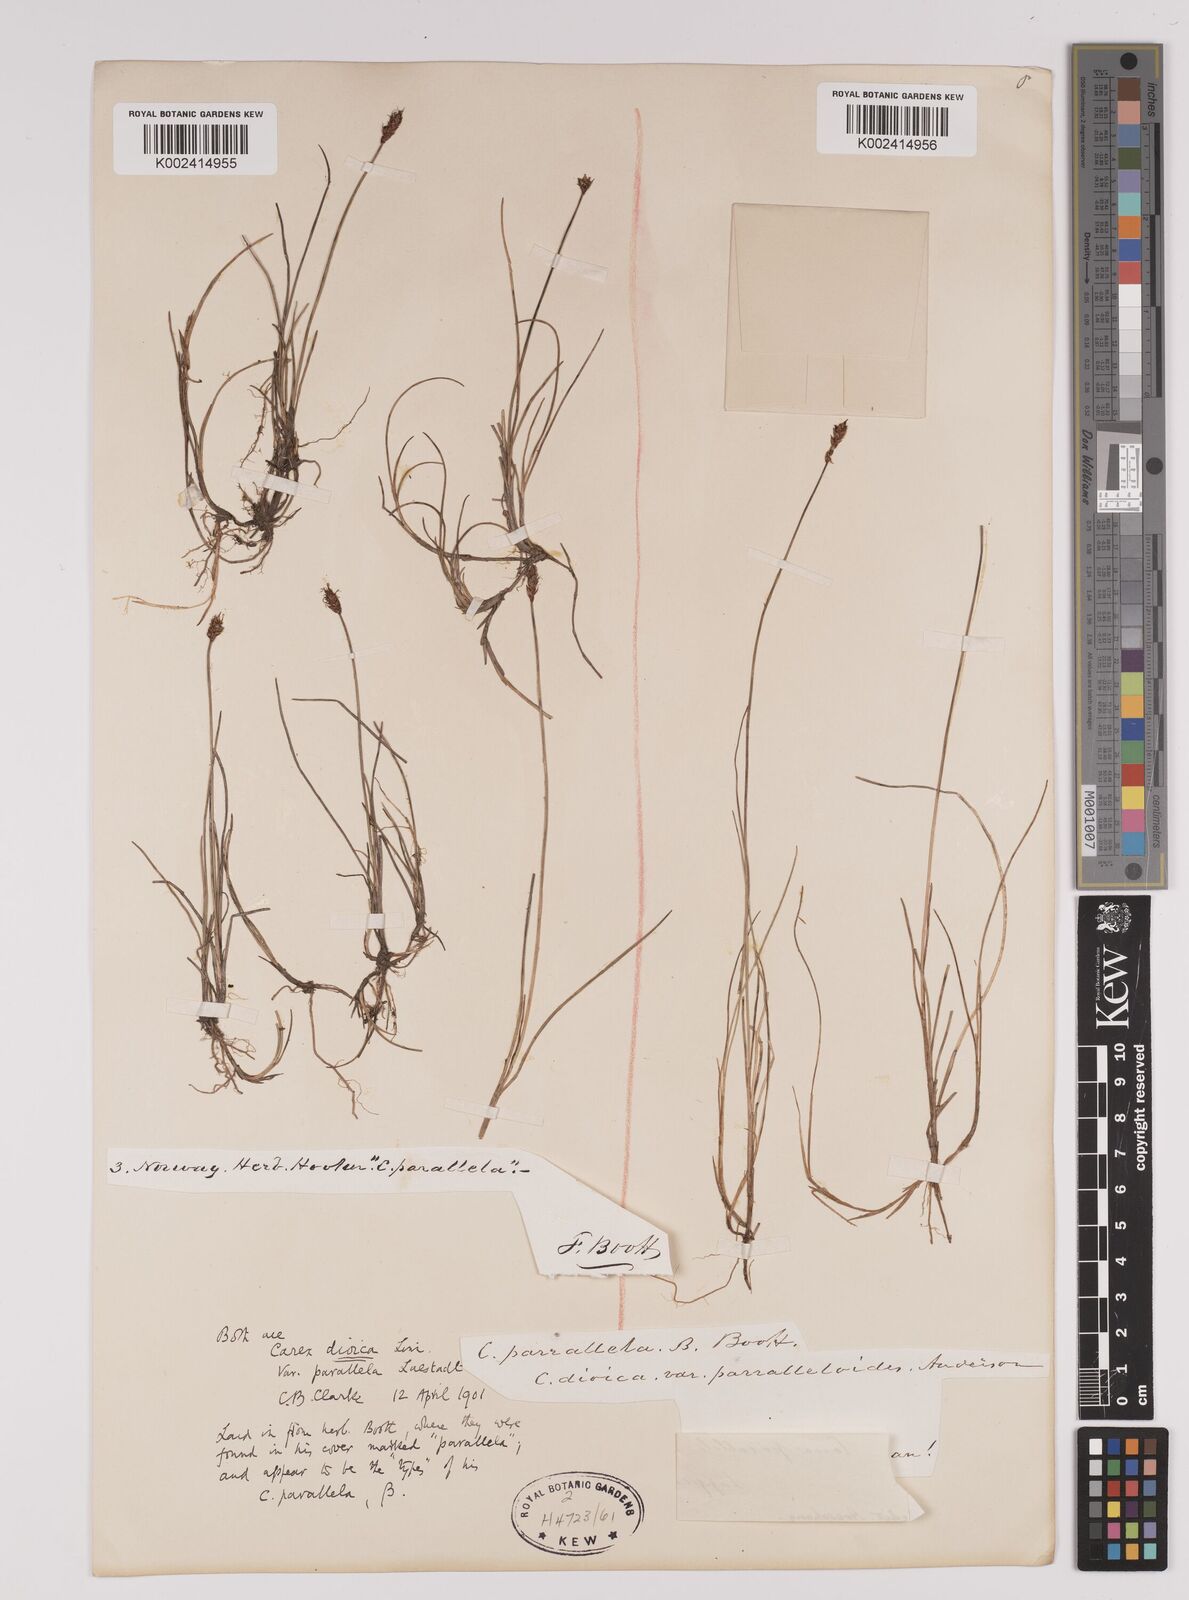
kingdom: Plantae
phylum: Tracheophyta
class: Liliopsida
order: Poales
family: Cyperaceae
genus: Carex
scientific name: Carex dioica
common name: Dioecious sedge
